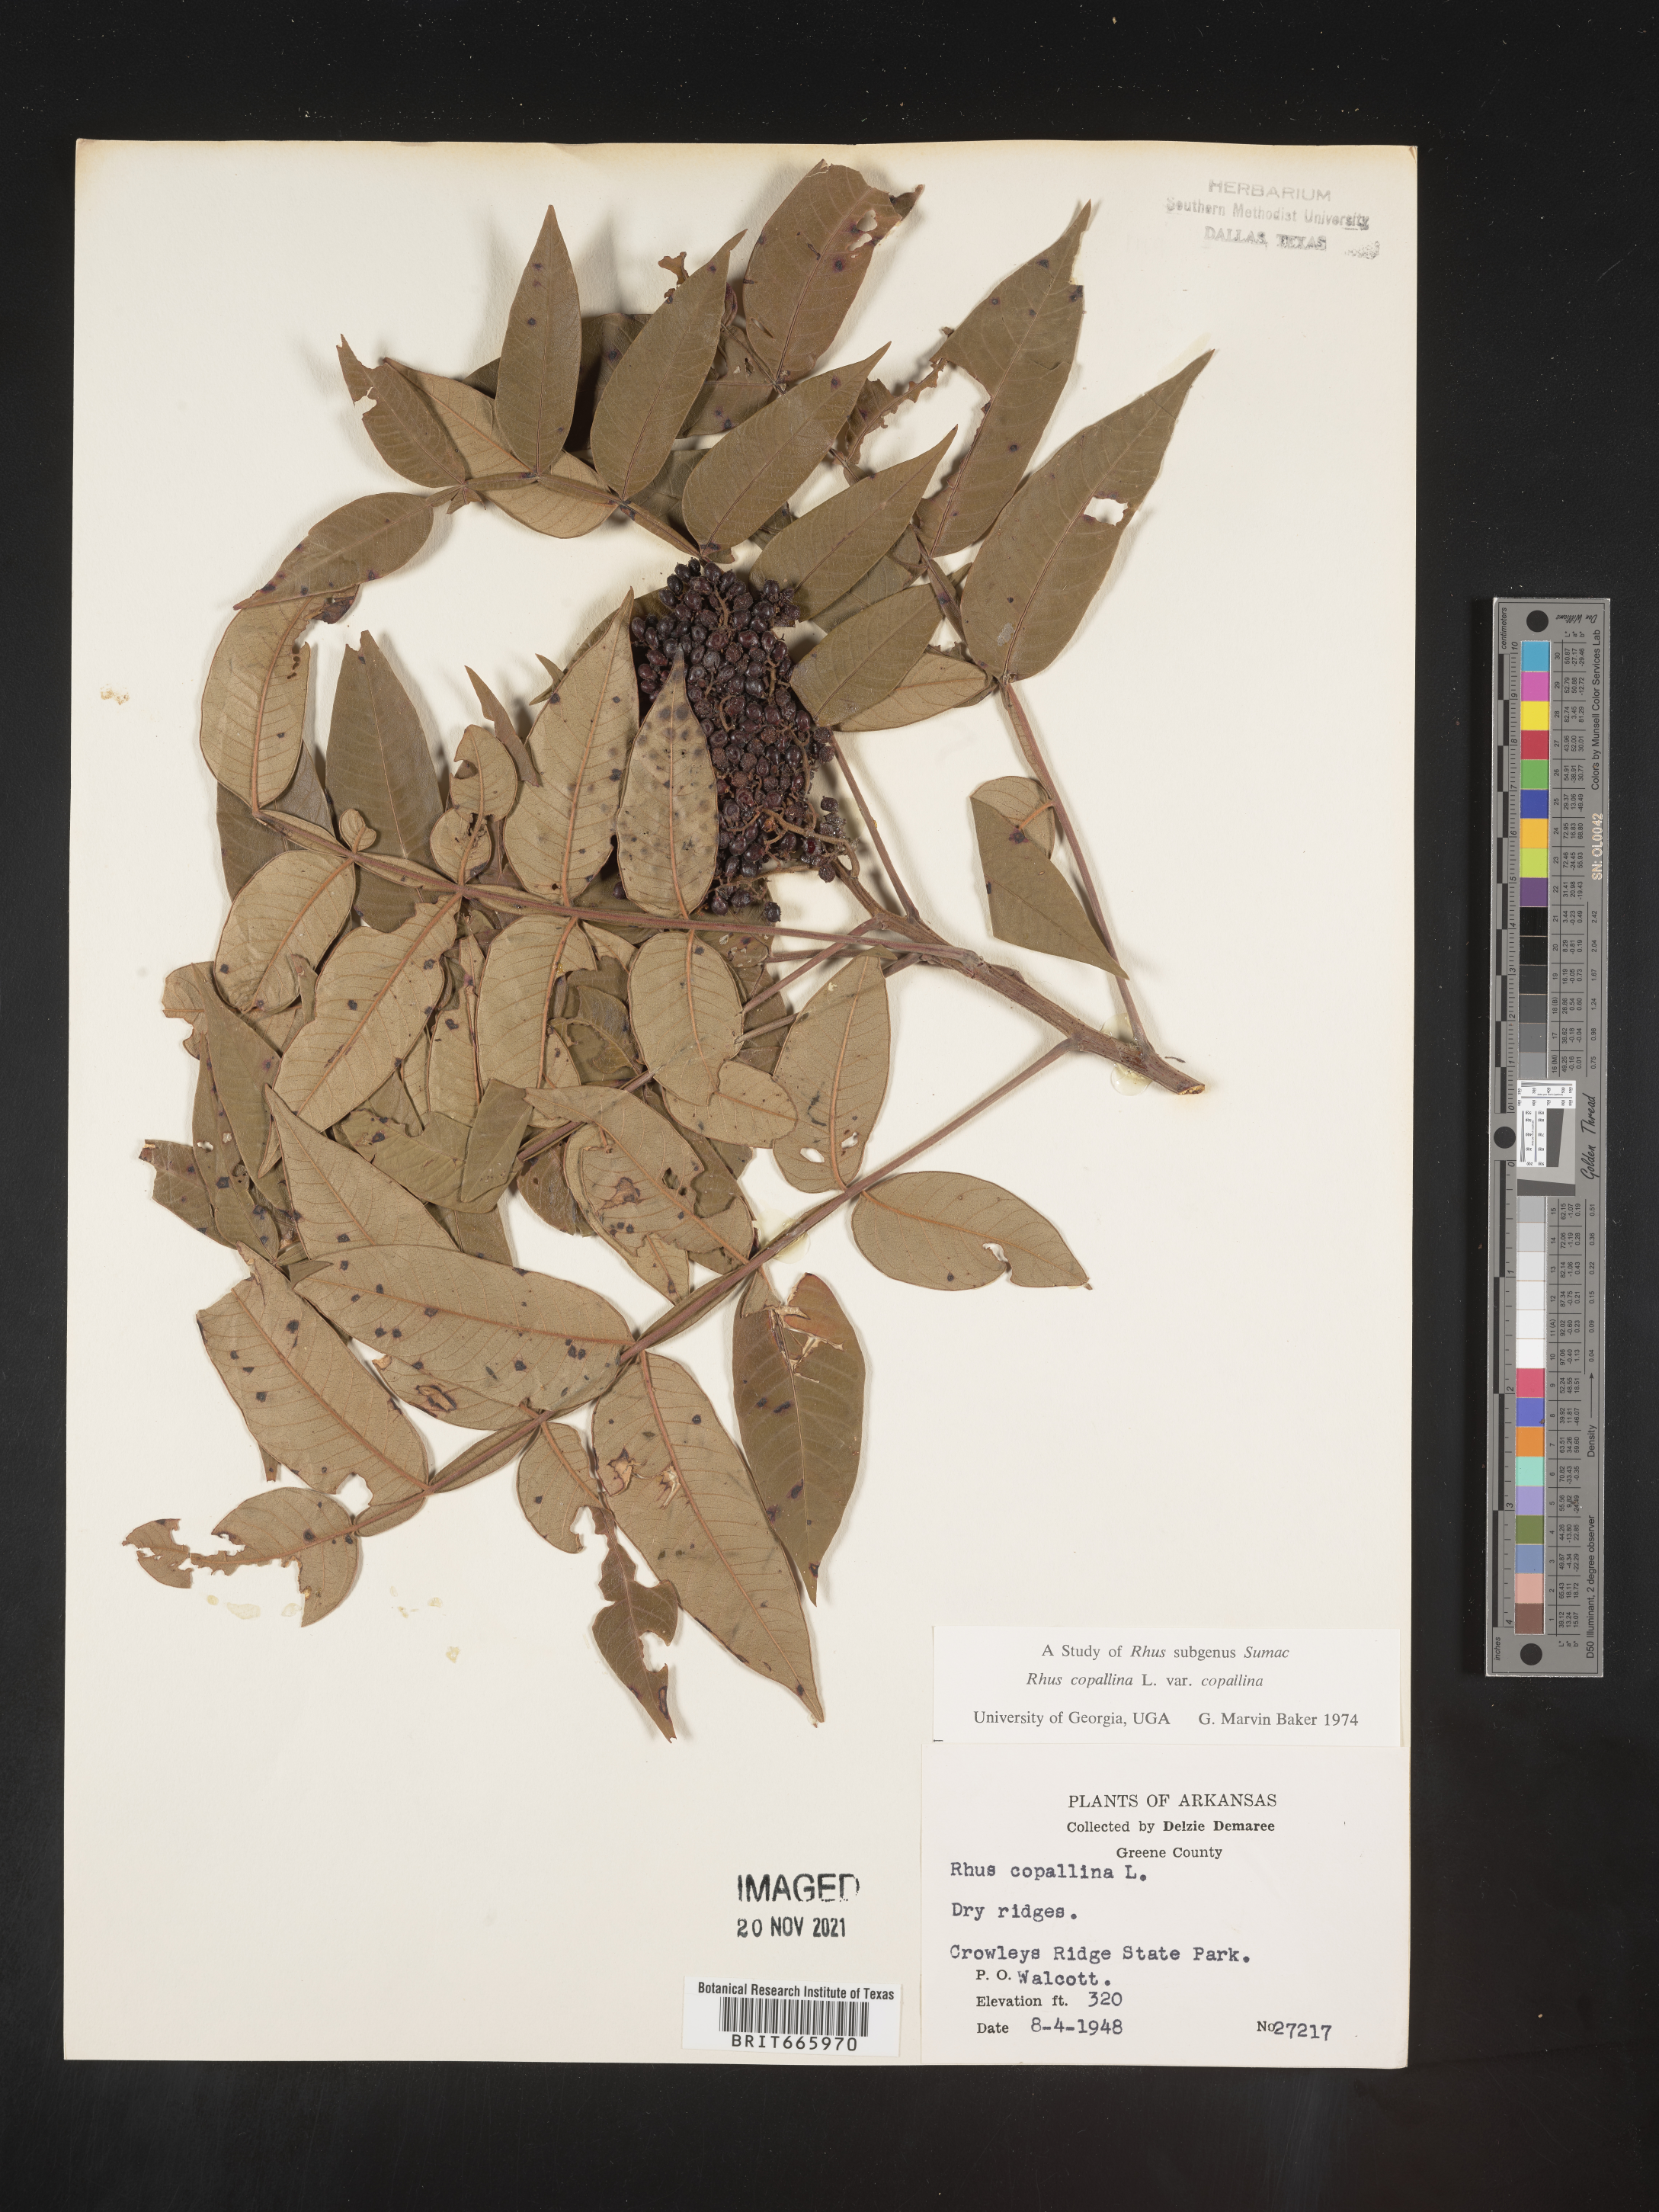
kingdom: Plantae
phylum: Tracheophyta
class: Magnoliopsida
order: Sapindales
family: Anacardiaceae
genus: Rhus
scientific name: Rhus copallina
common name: Shining sumac
